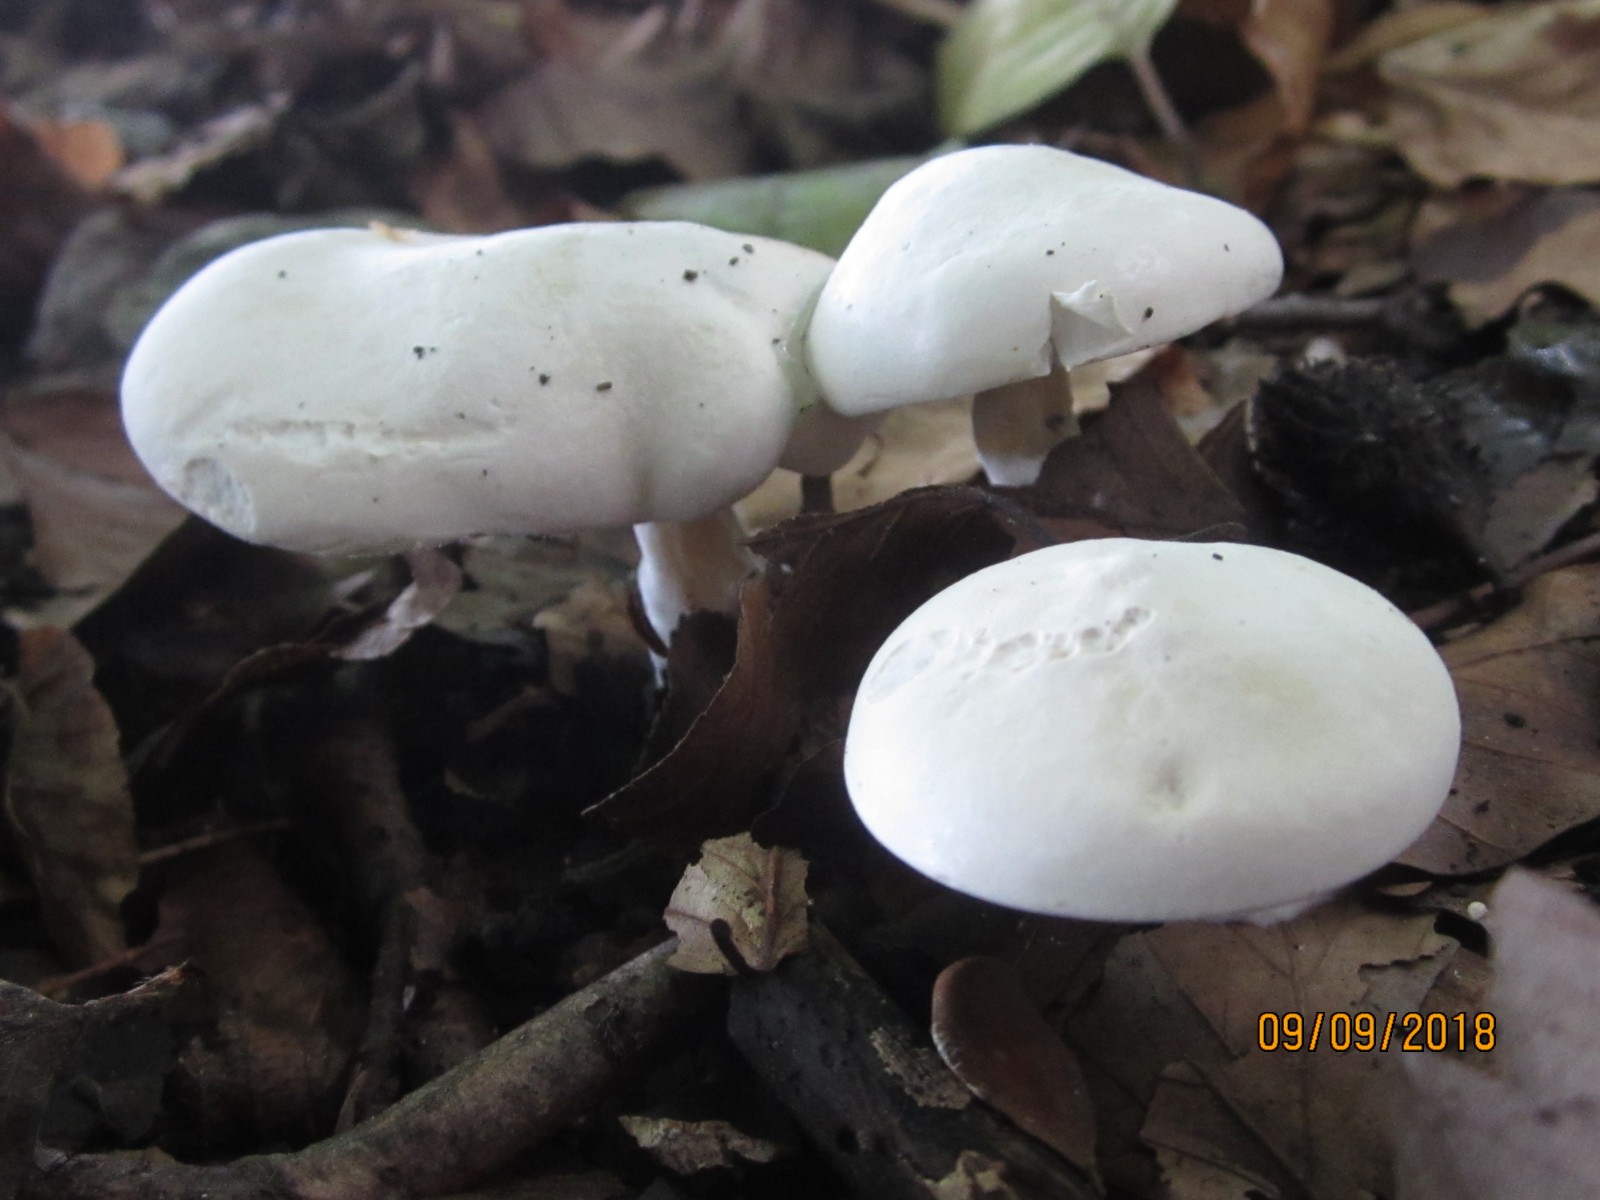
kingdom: Fungi
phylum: Basidiomycota
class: Agaricomycetes
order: Agaricales
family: Entolomataceae
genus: Clitopilus
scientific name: Clitopilus prunulus
